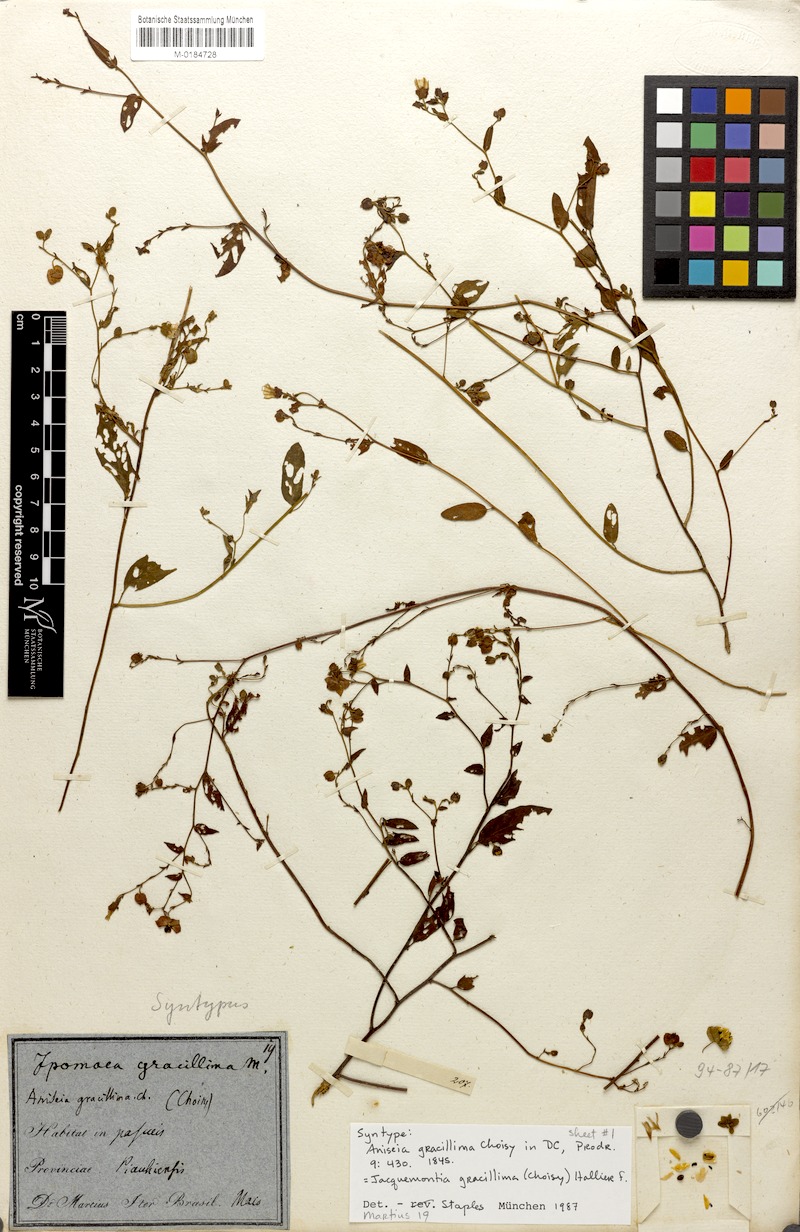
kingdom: Plantae
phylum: Tracheophyta
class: Magnoliopsida
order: Solanales
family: Convolvulaceae
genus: Jacquemontia
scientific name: Jacquemontia gracillima
